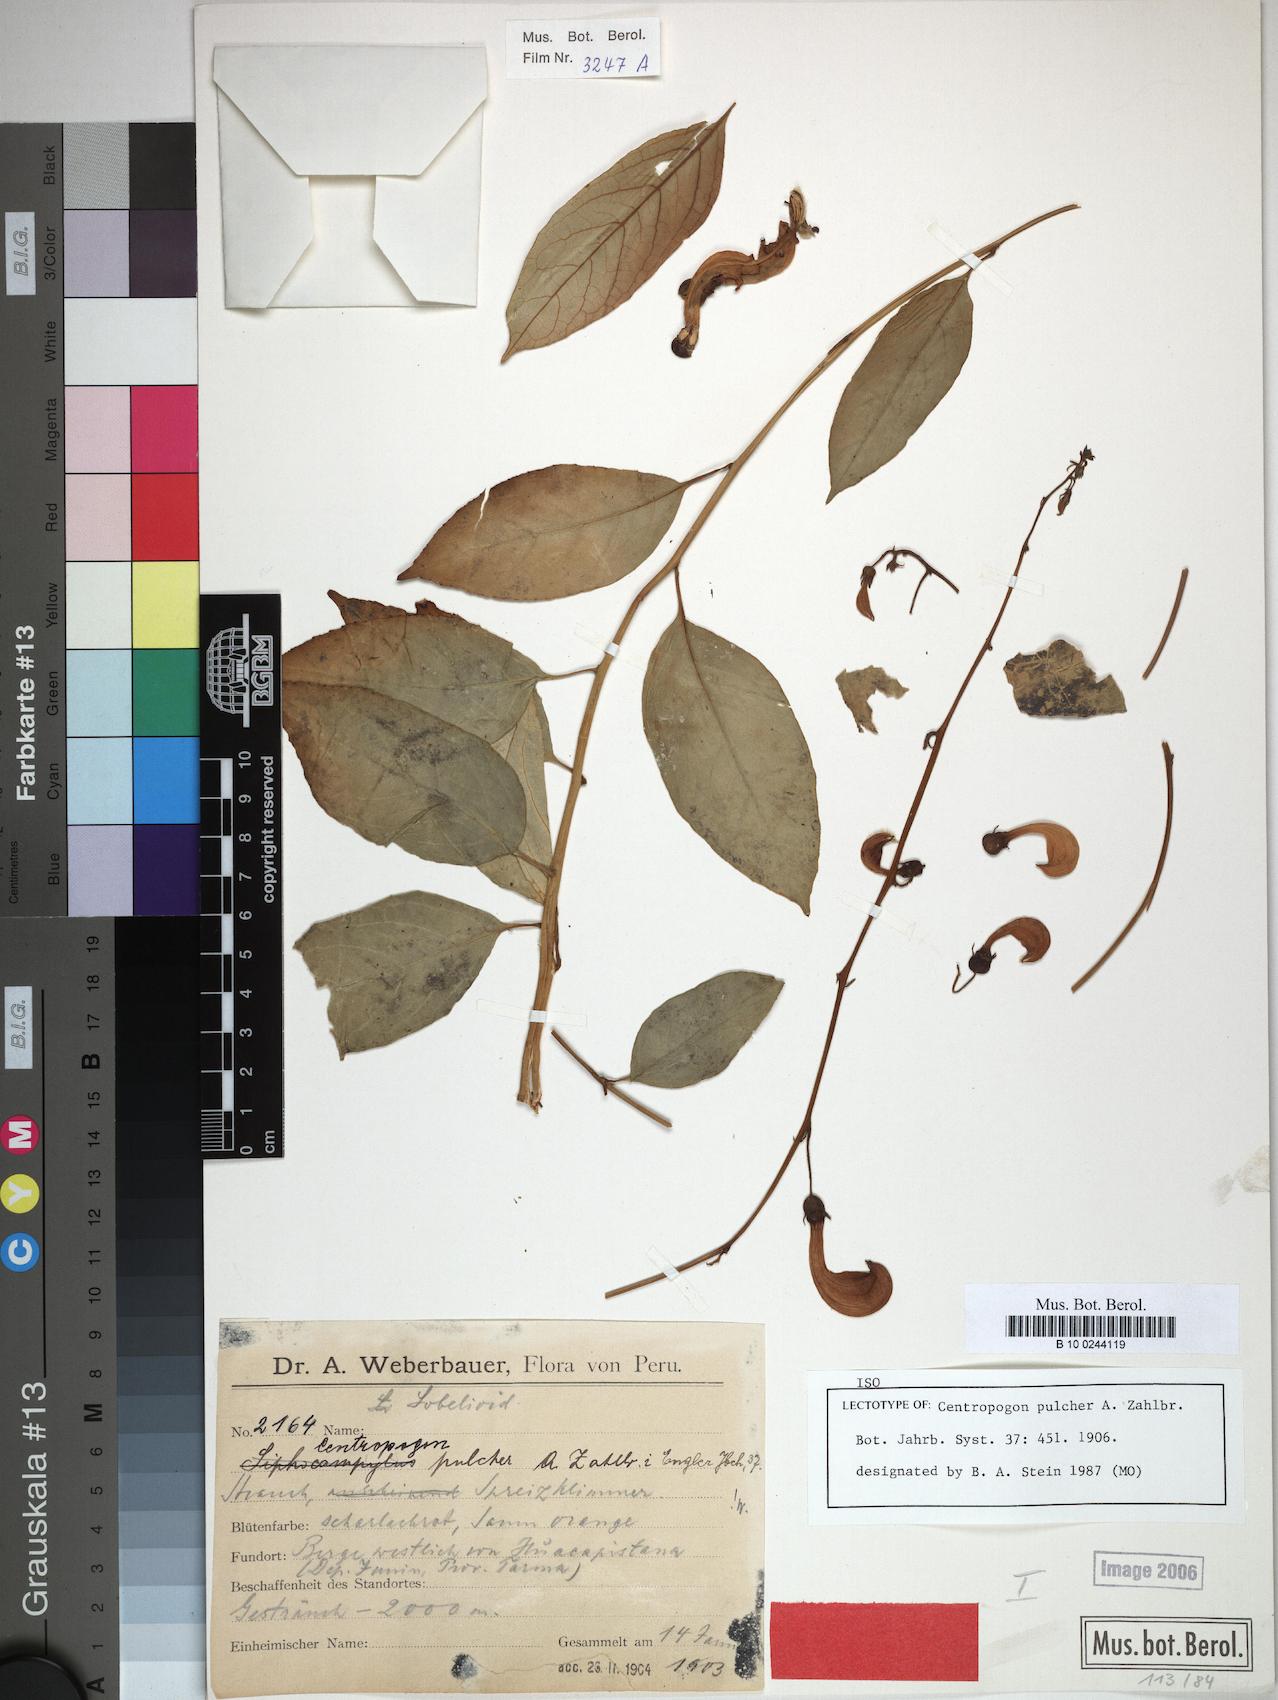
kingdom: Plantae
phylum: Tracheophyta
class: Magnoliopsida
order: Asterales
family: Campanulaceae
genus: Centropogon
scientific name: Centropogon pulcher
